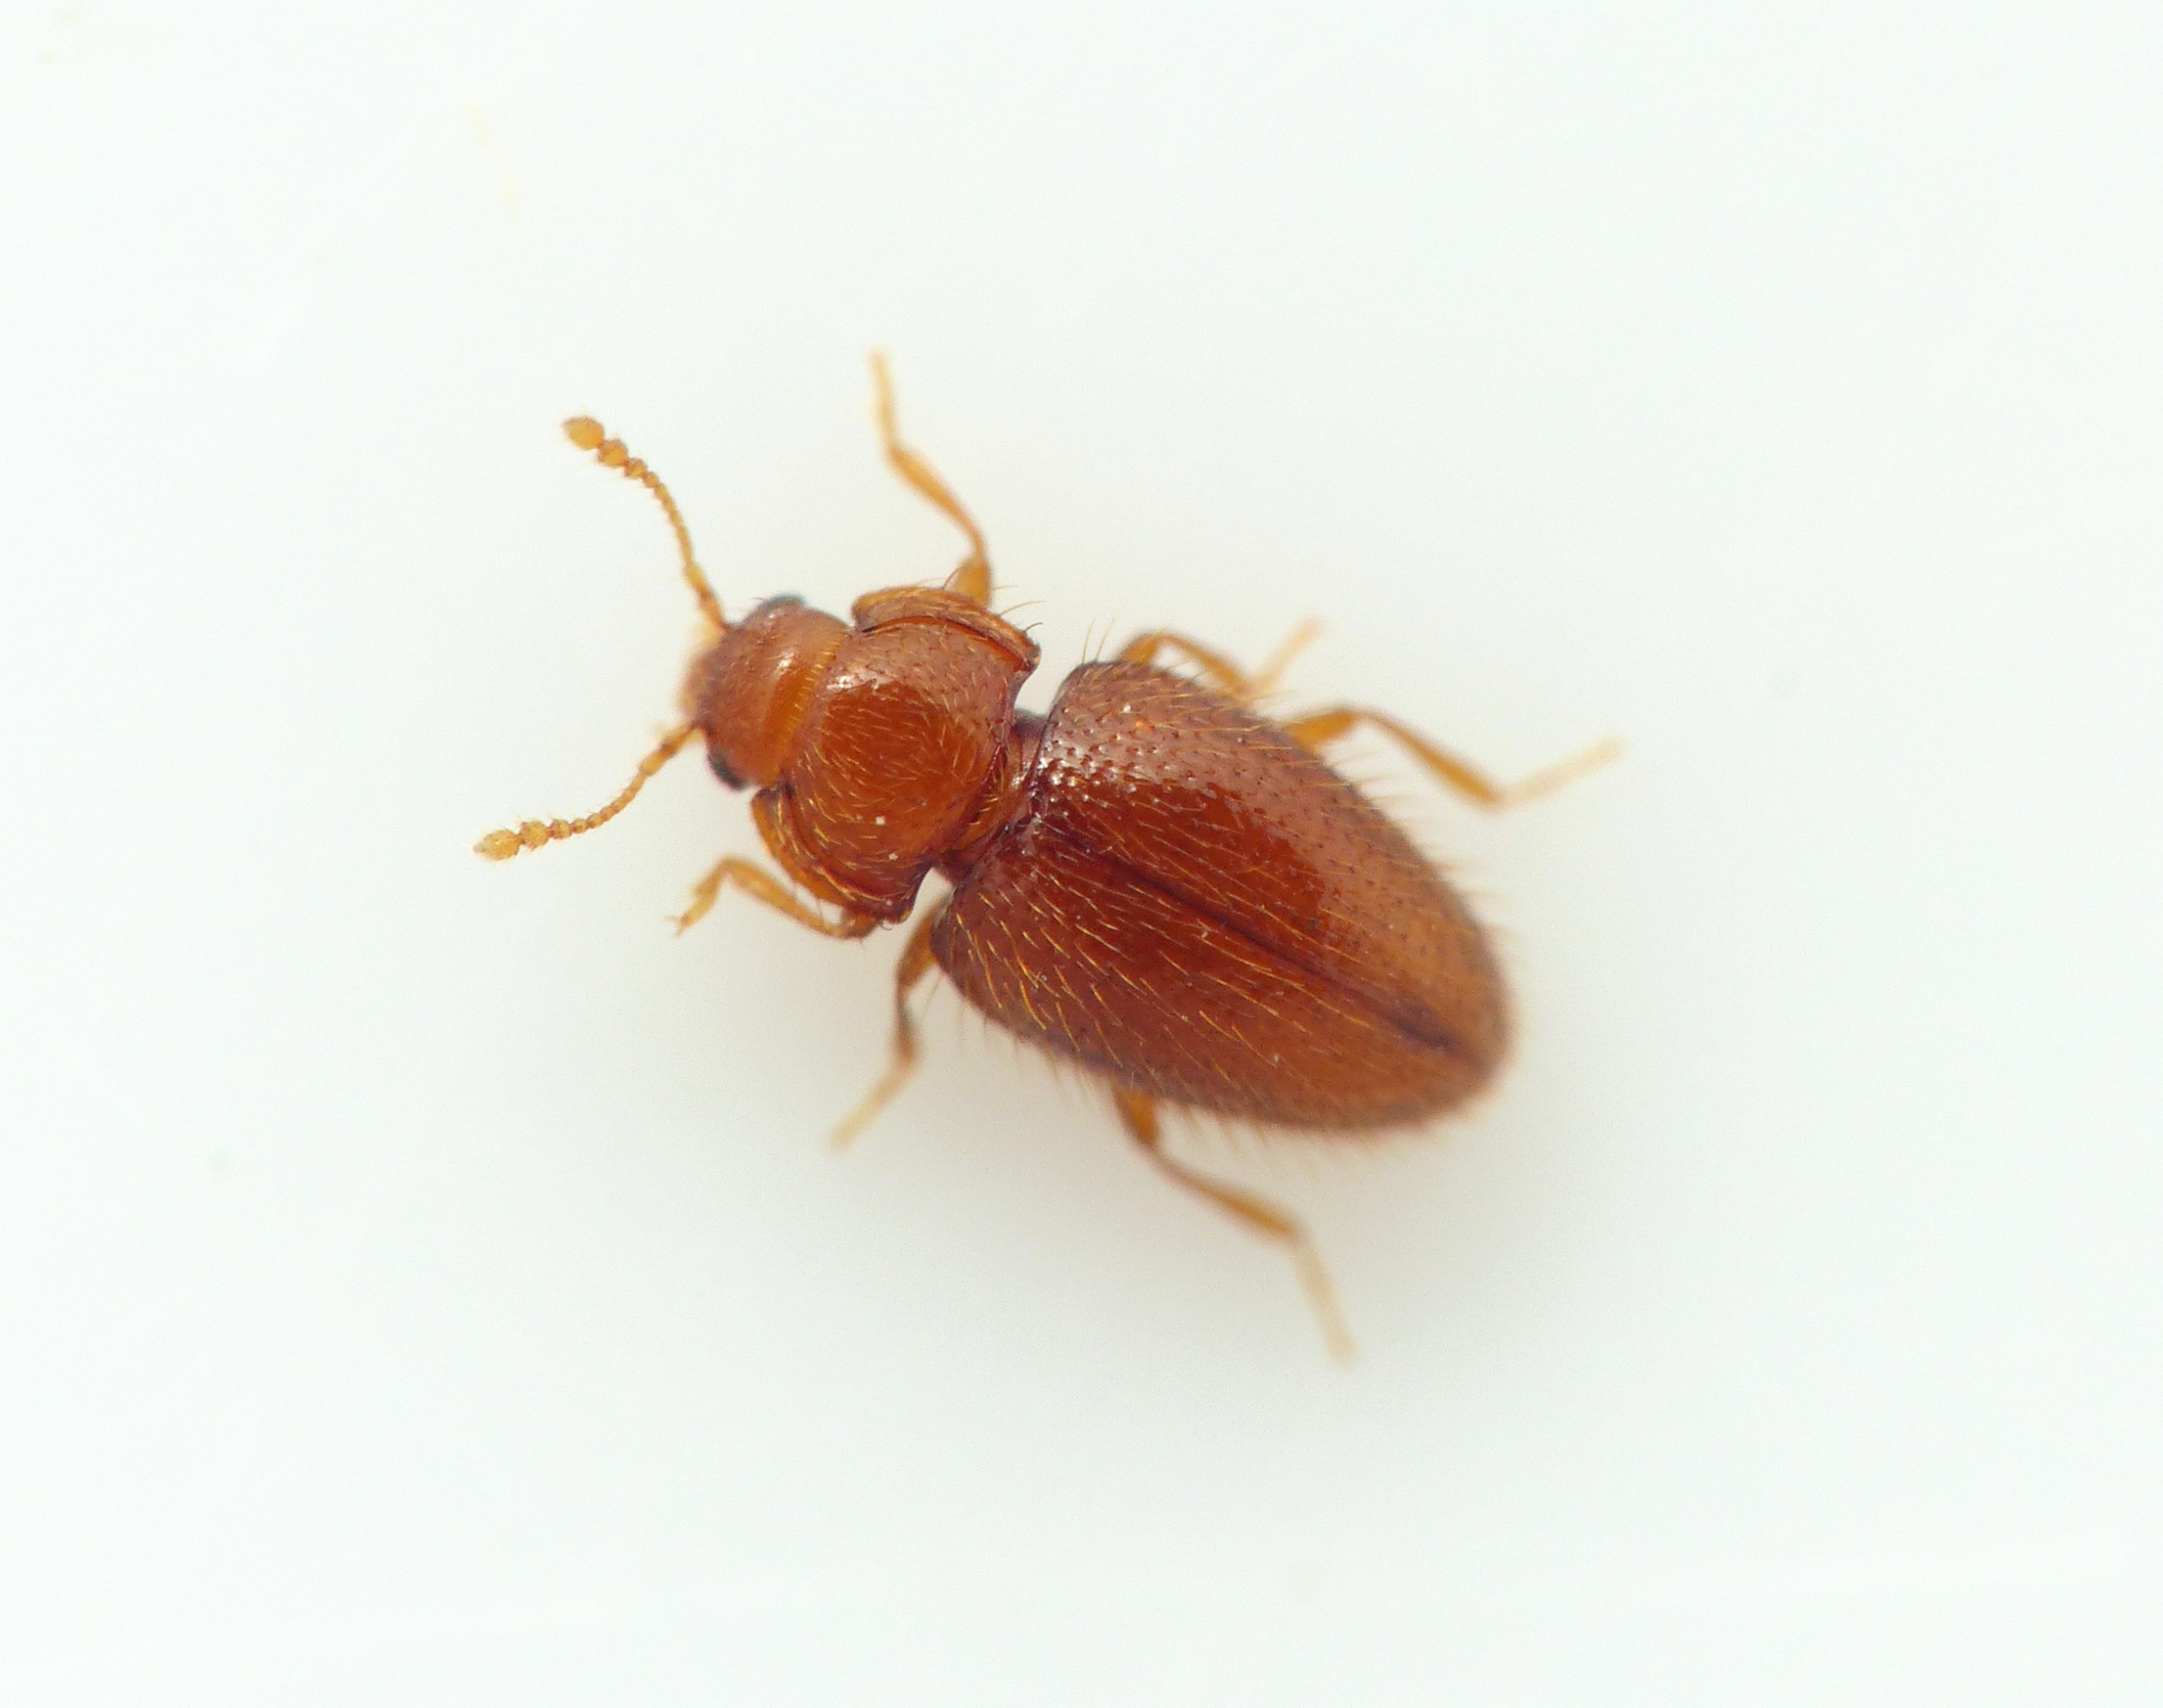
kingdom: Animalia
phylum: Arthropoda
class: Insecta
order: Coleoptera
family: Mycetaeidae
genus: Mycetaea
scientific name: Mycetaea subterranea
